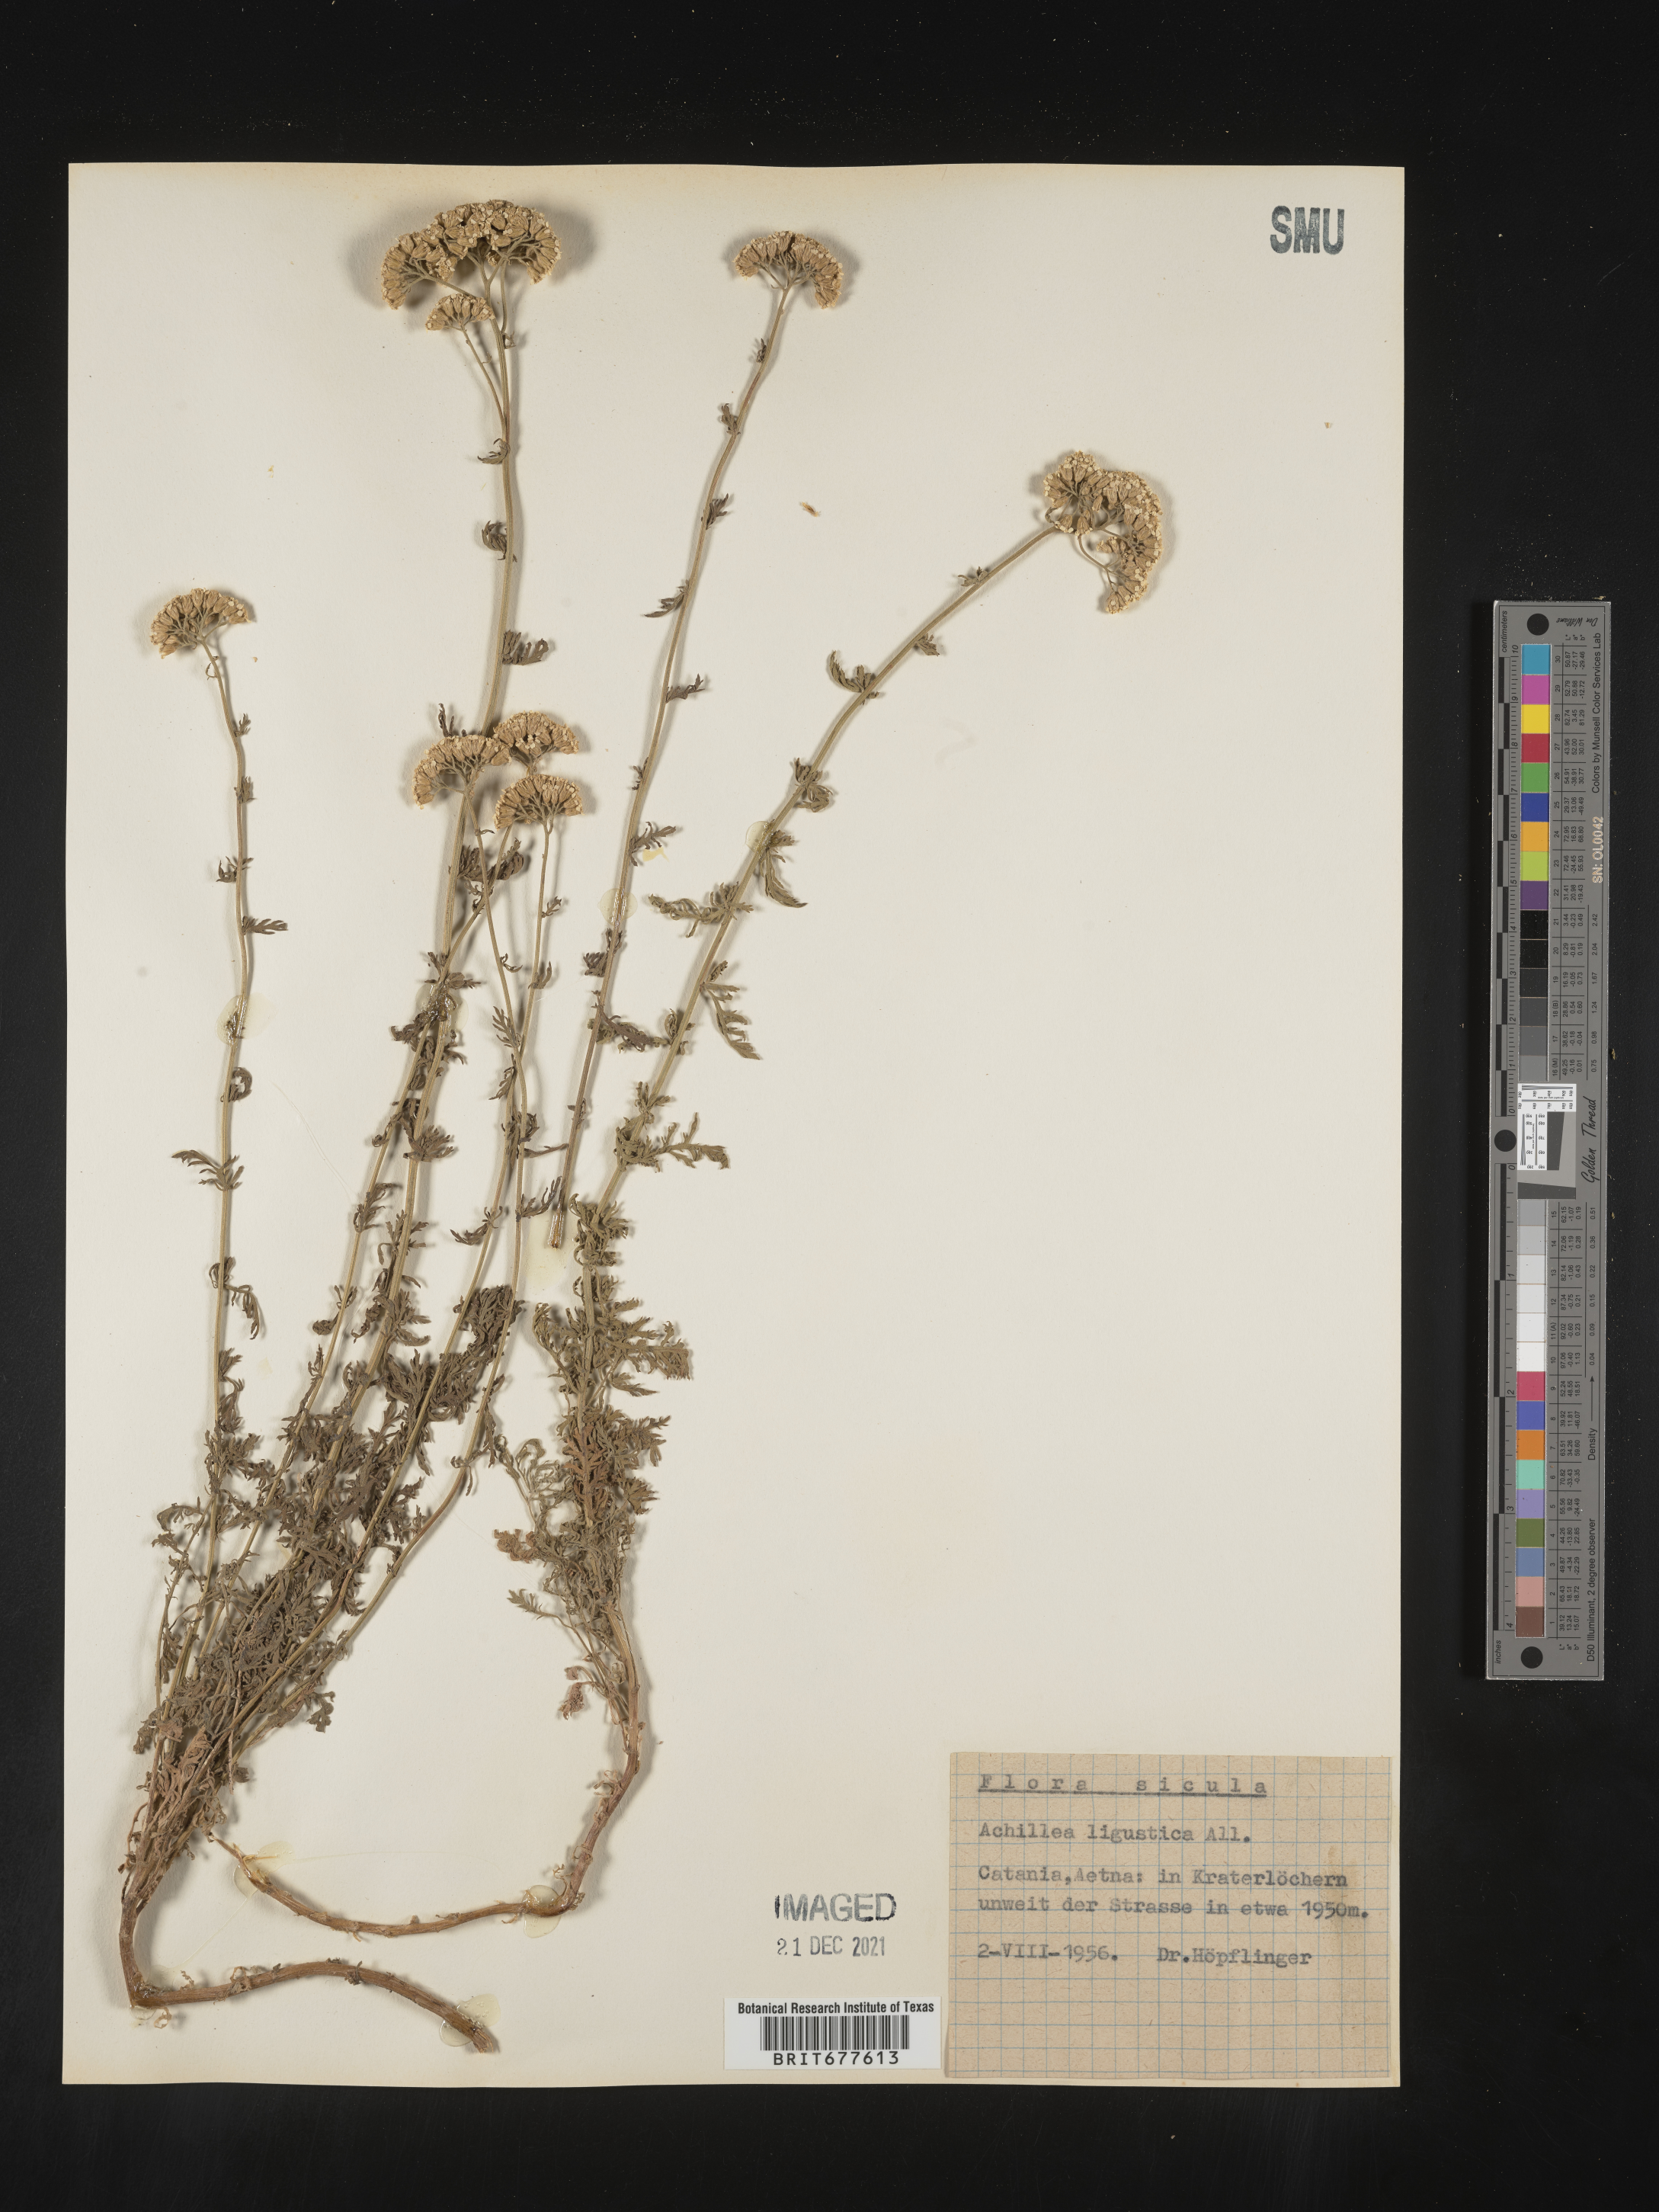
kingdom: Plantae
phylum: Tracheophyta
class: Magnoliopsida
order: Asterales
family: Asteraceae
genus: Achillea
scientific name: Achillea millefolium
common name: Yarrow
